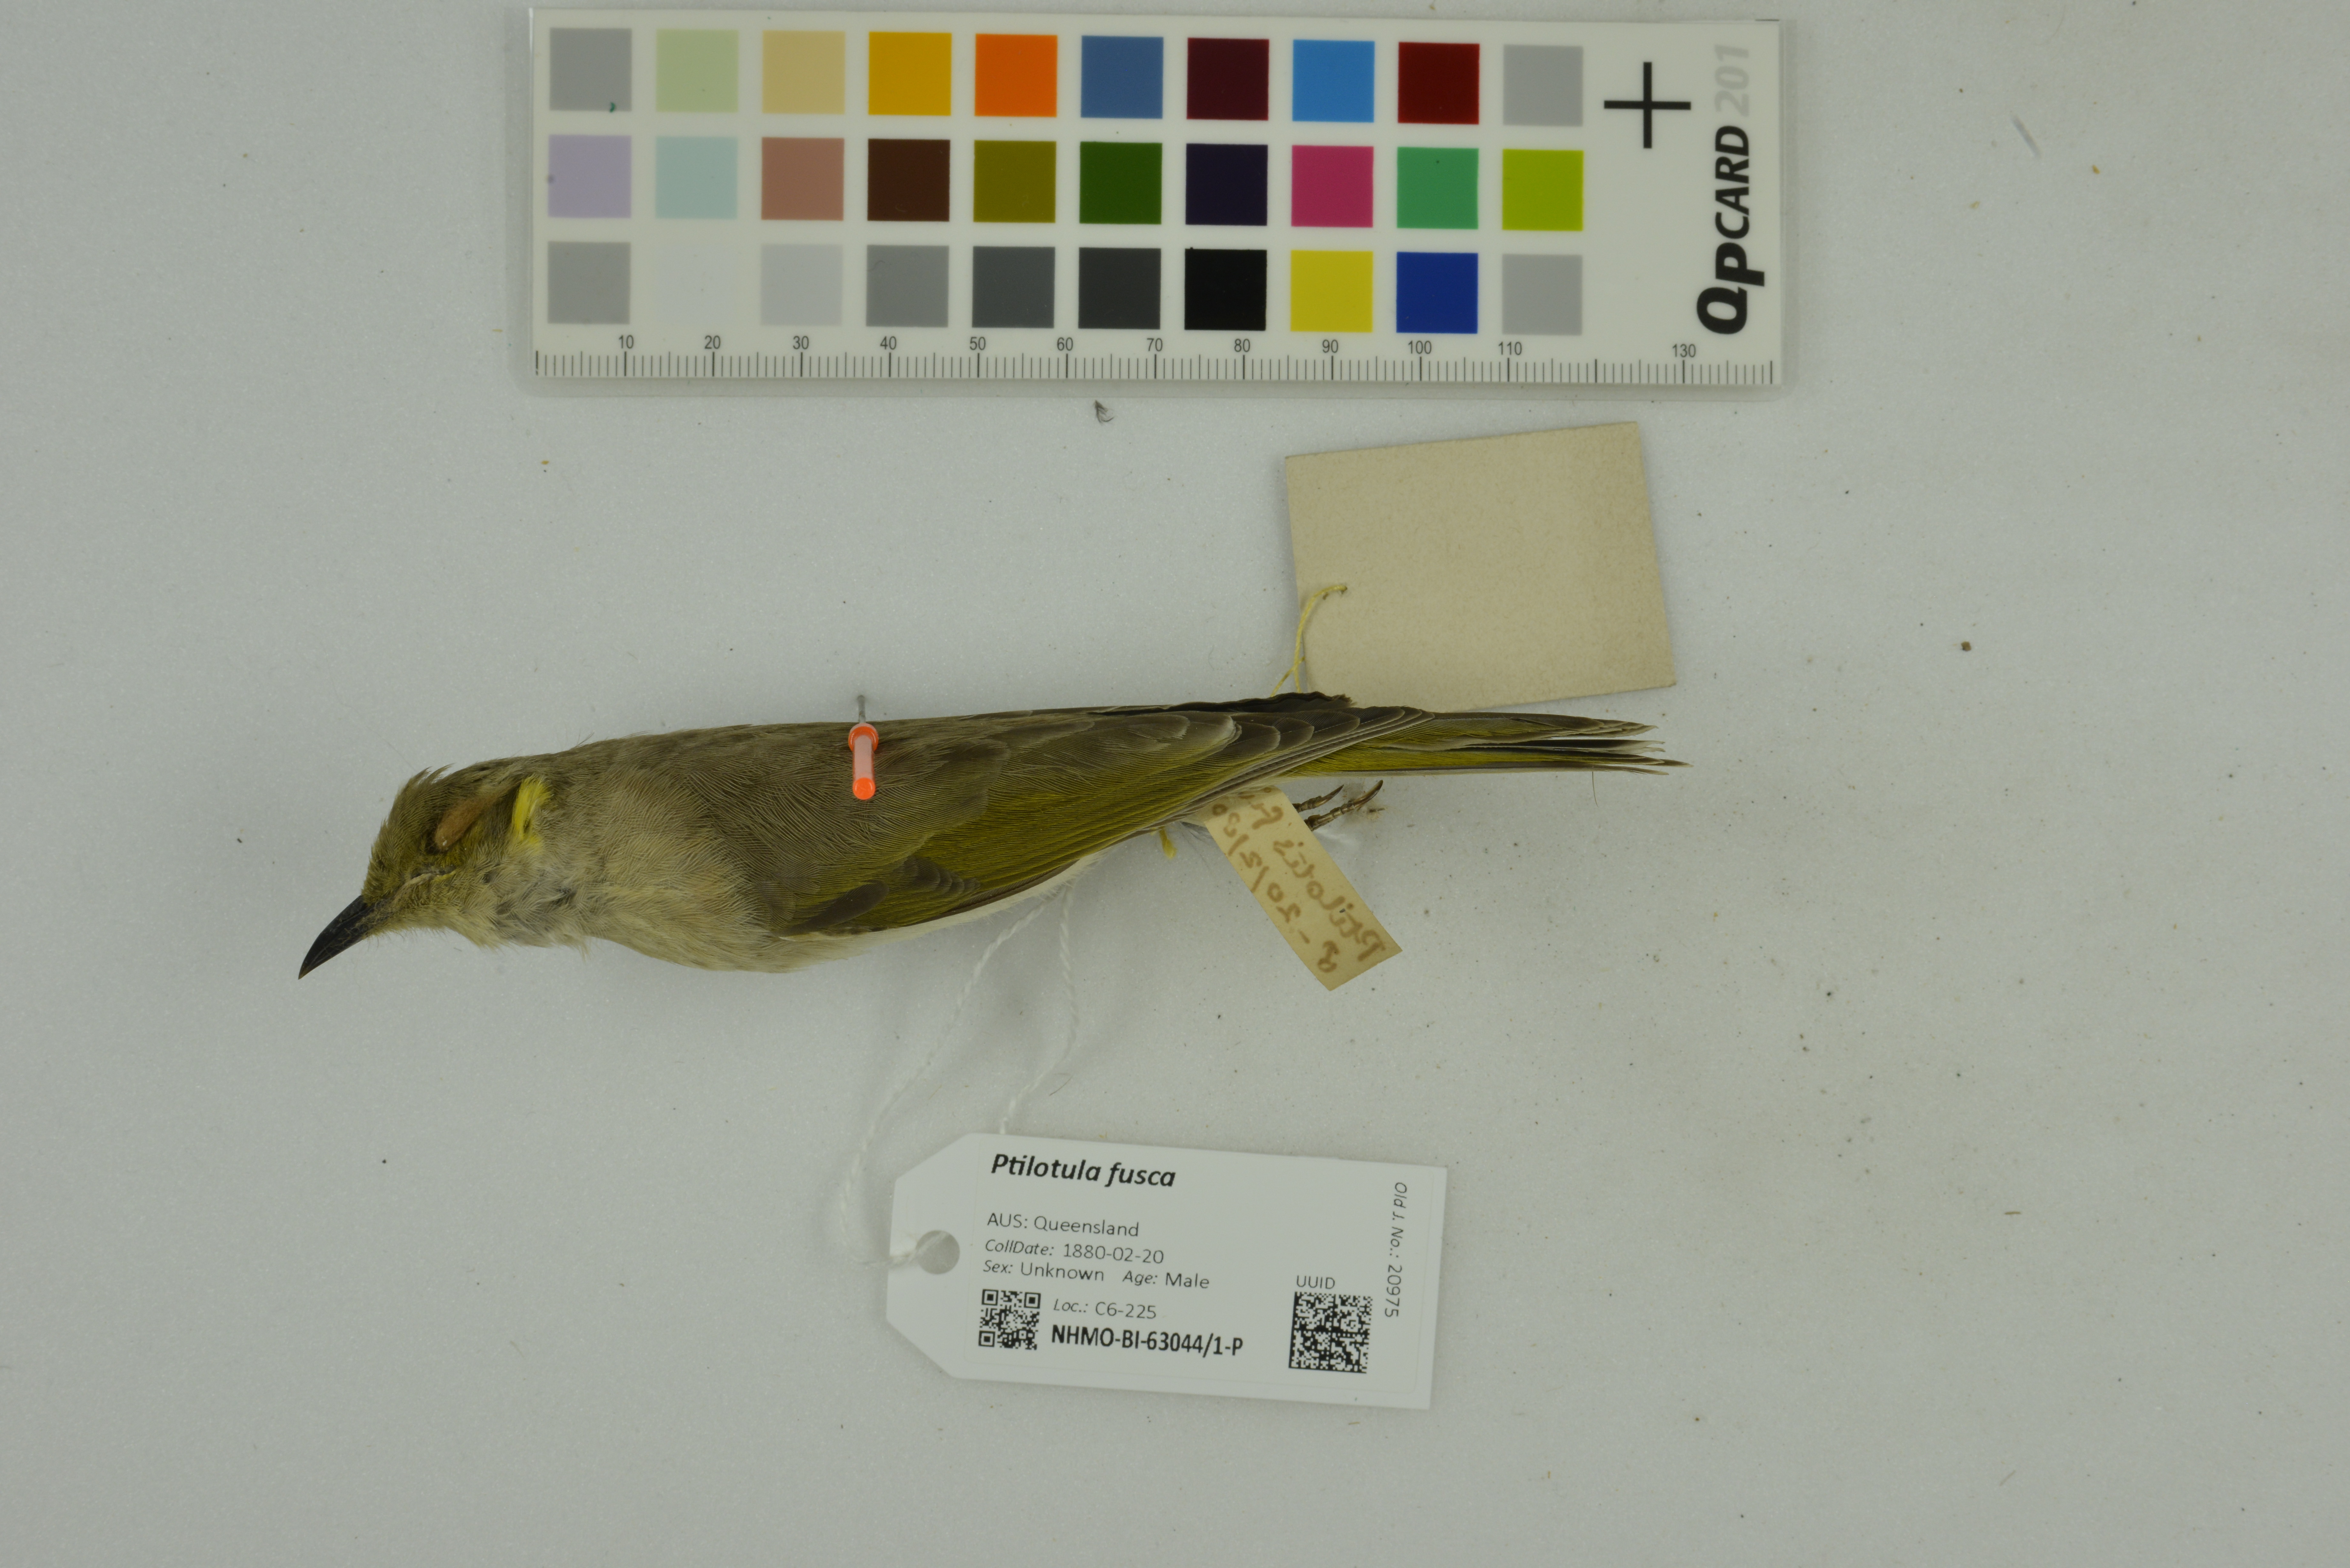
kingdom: Animalia
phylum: Chordata
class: Aves
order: Passeriformes
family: Meliphagidae
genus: Ptilotula
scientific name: Ptilotula fusca
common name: Fuscous honeyeater
